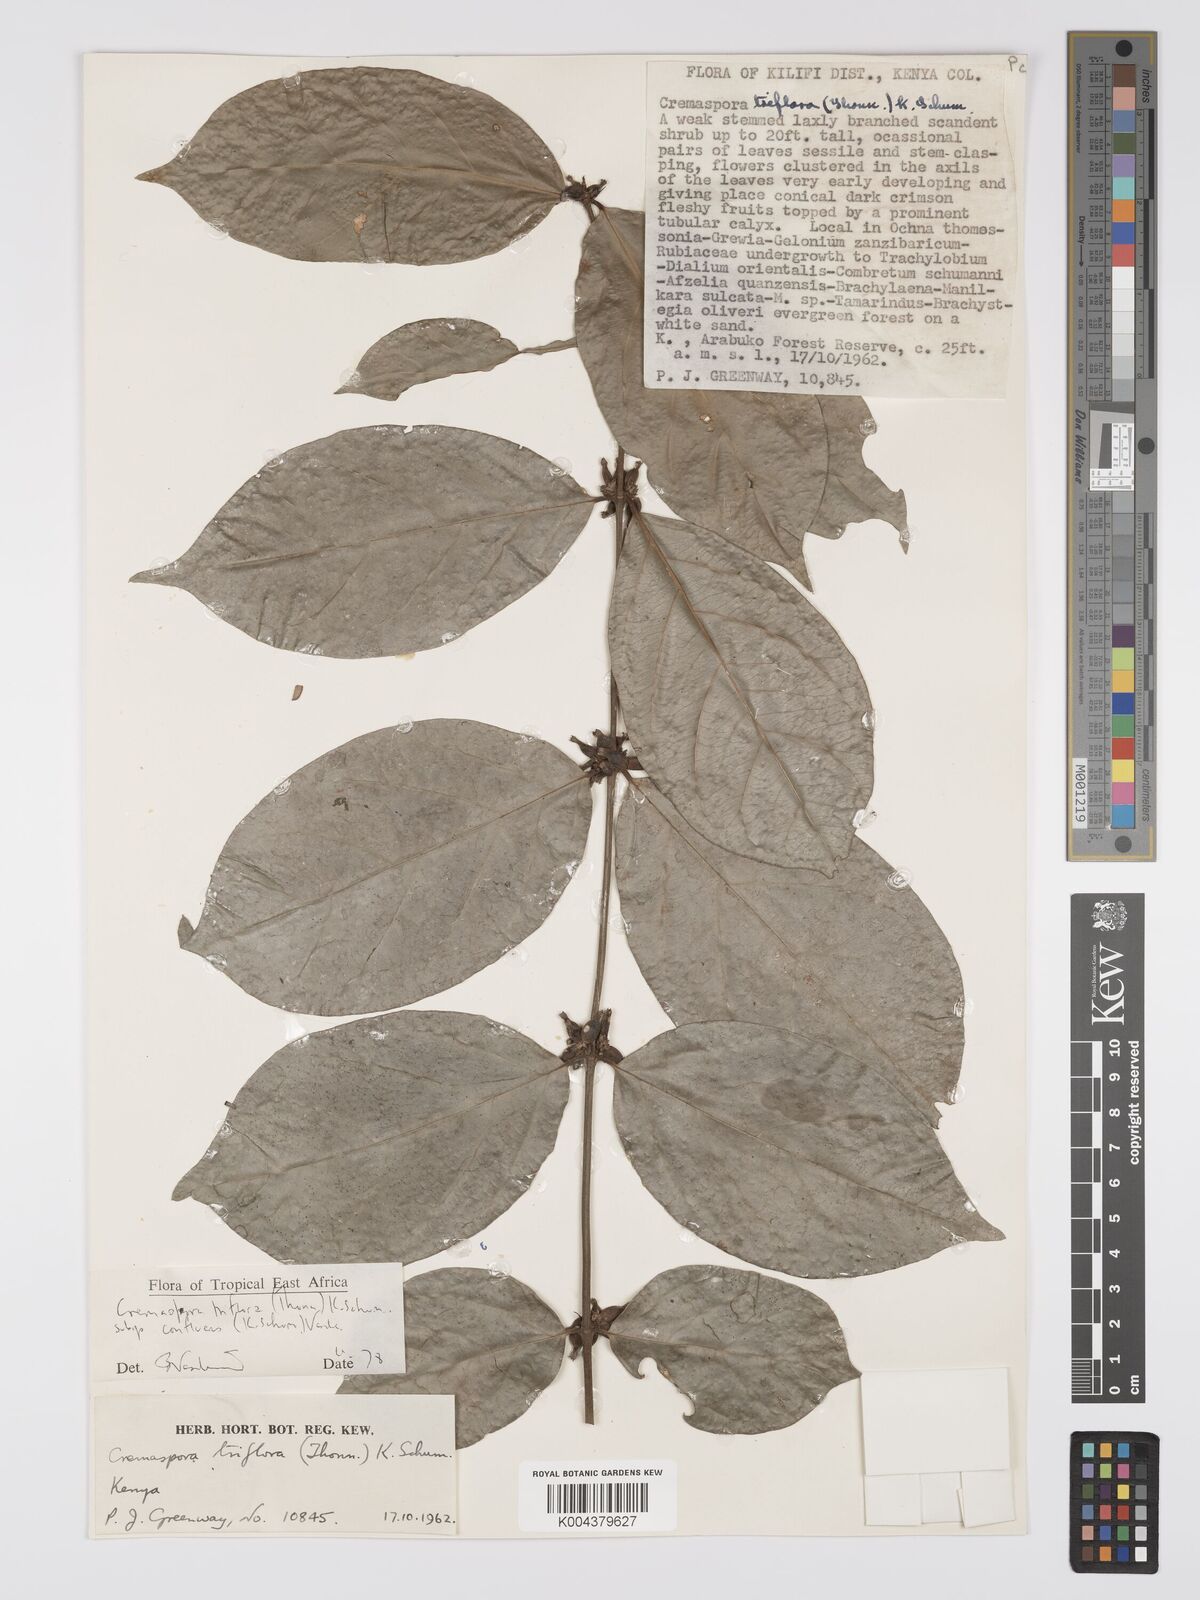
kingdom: Plantae
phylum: Tracheophyta
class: Magnoliopsida
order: Gentianales
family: Rubiaceae
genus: Cremaspora
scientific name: Cremaspora triflora
